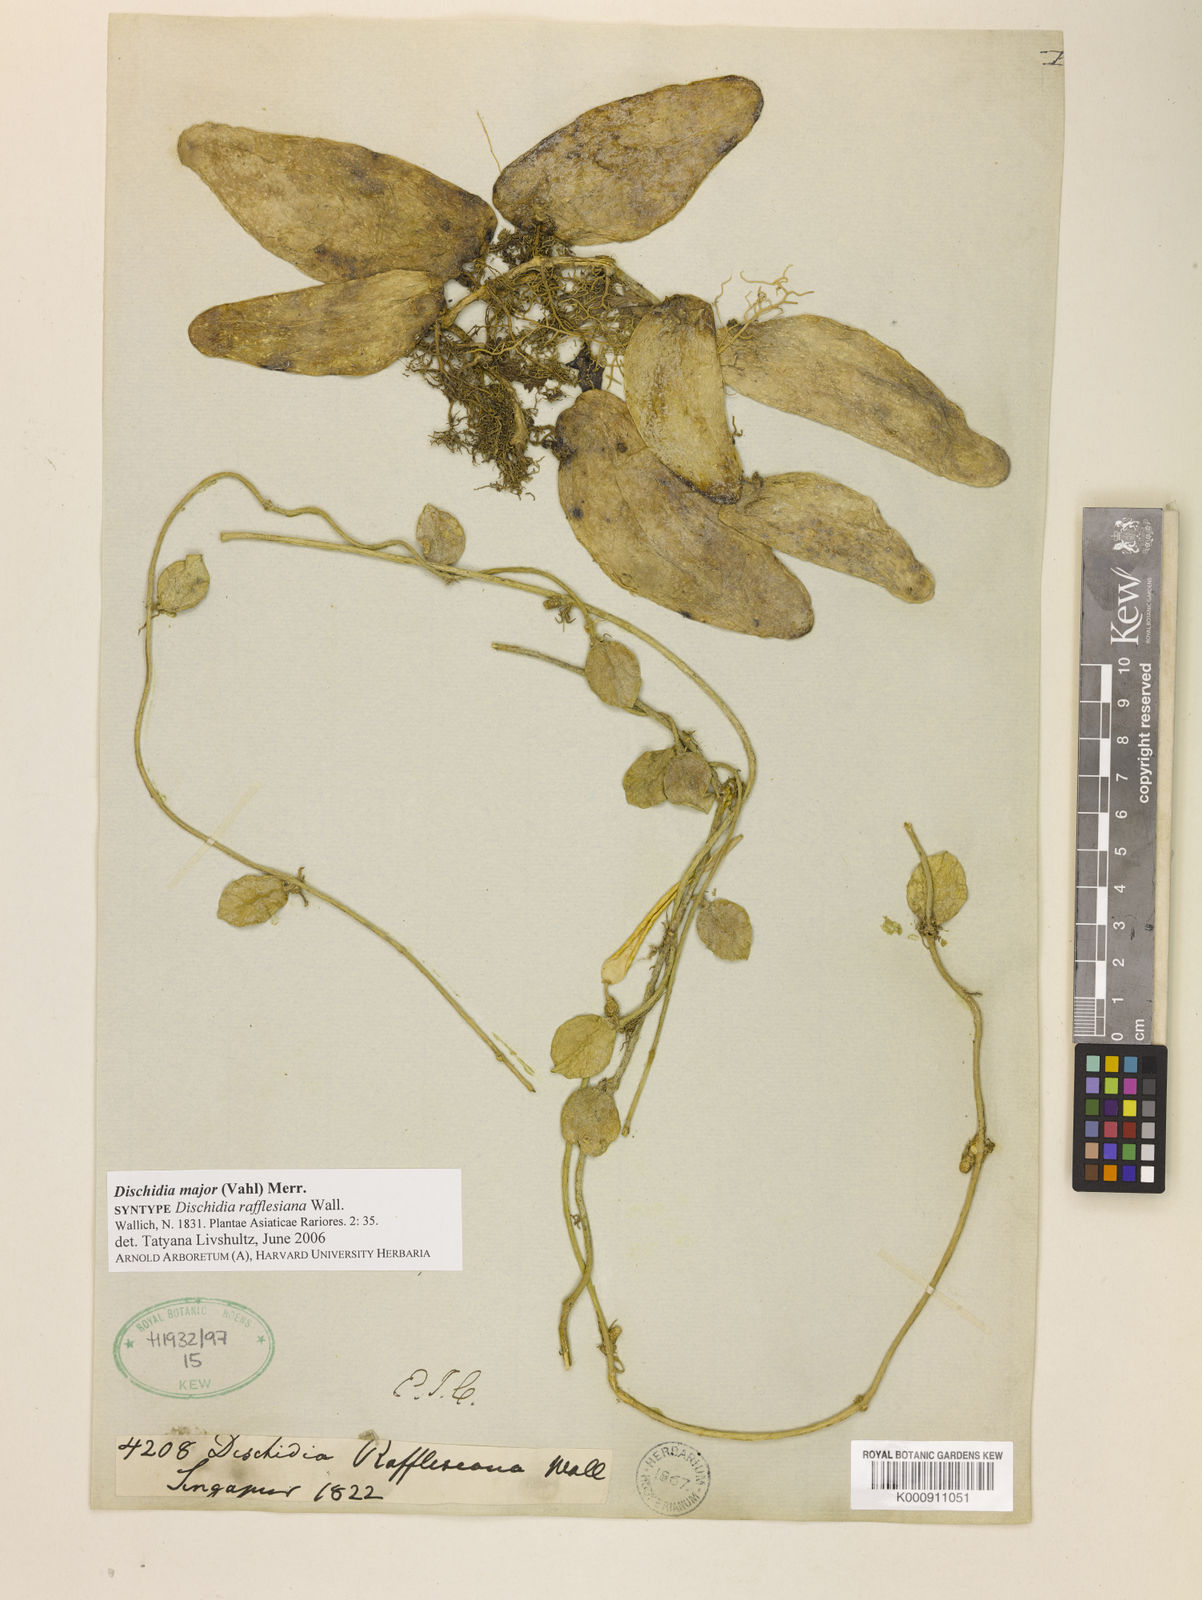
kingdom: Plantae
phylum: Tracheophyta
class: Magnoliopsida
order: Gentianales
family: Apocynaceae
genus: Dischidia
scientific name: Dischidia major
